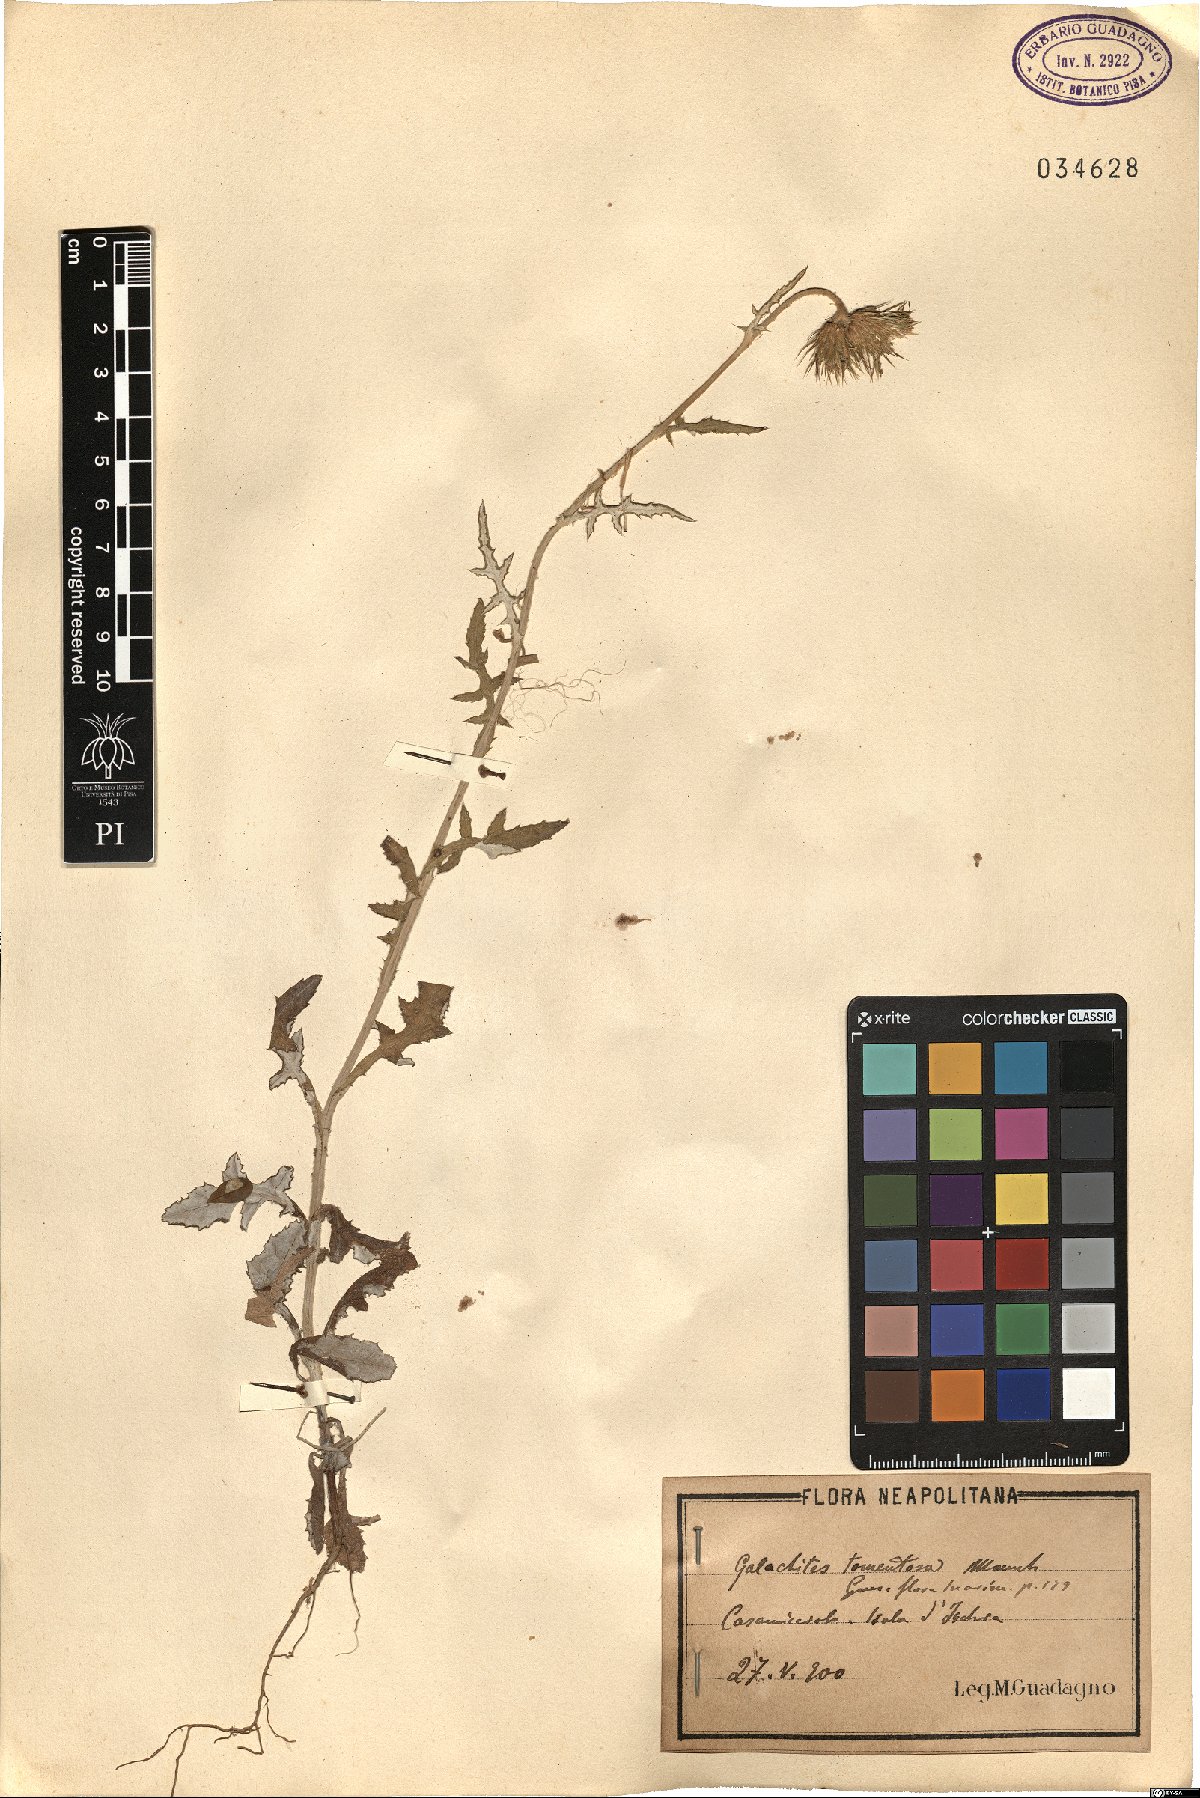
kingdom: Plantae
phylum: Tracheophyta
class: Magnoliopsida
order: Asterales
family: Asteraceae
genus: Galactites
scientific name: Galactites tomentosa
